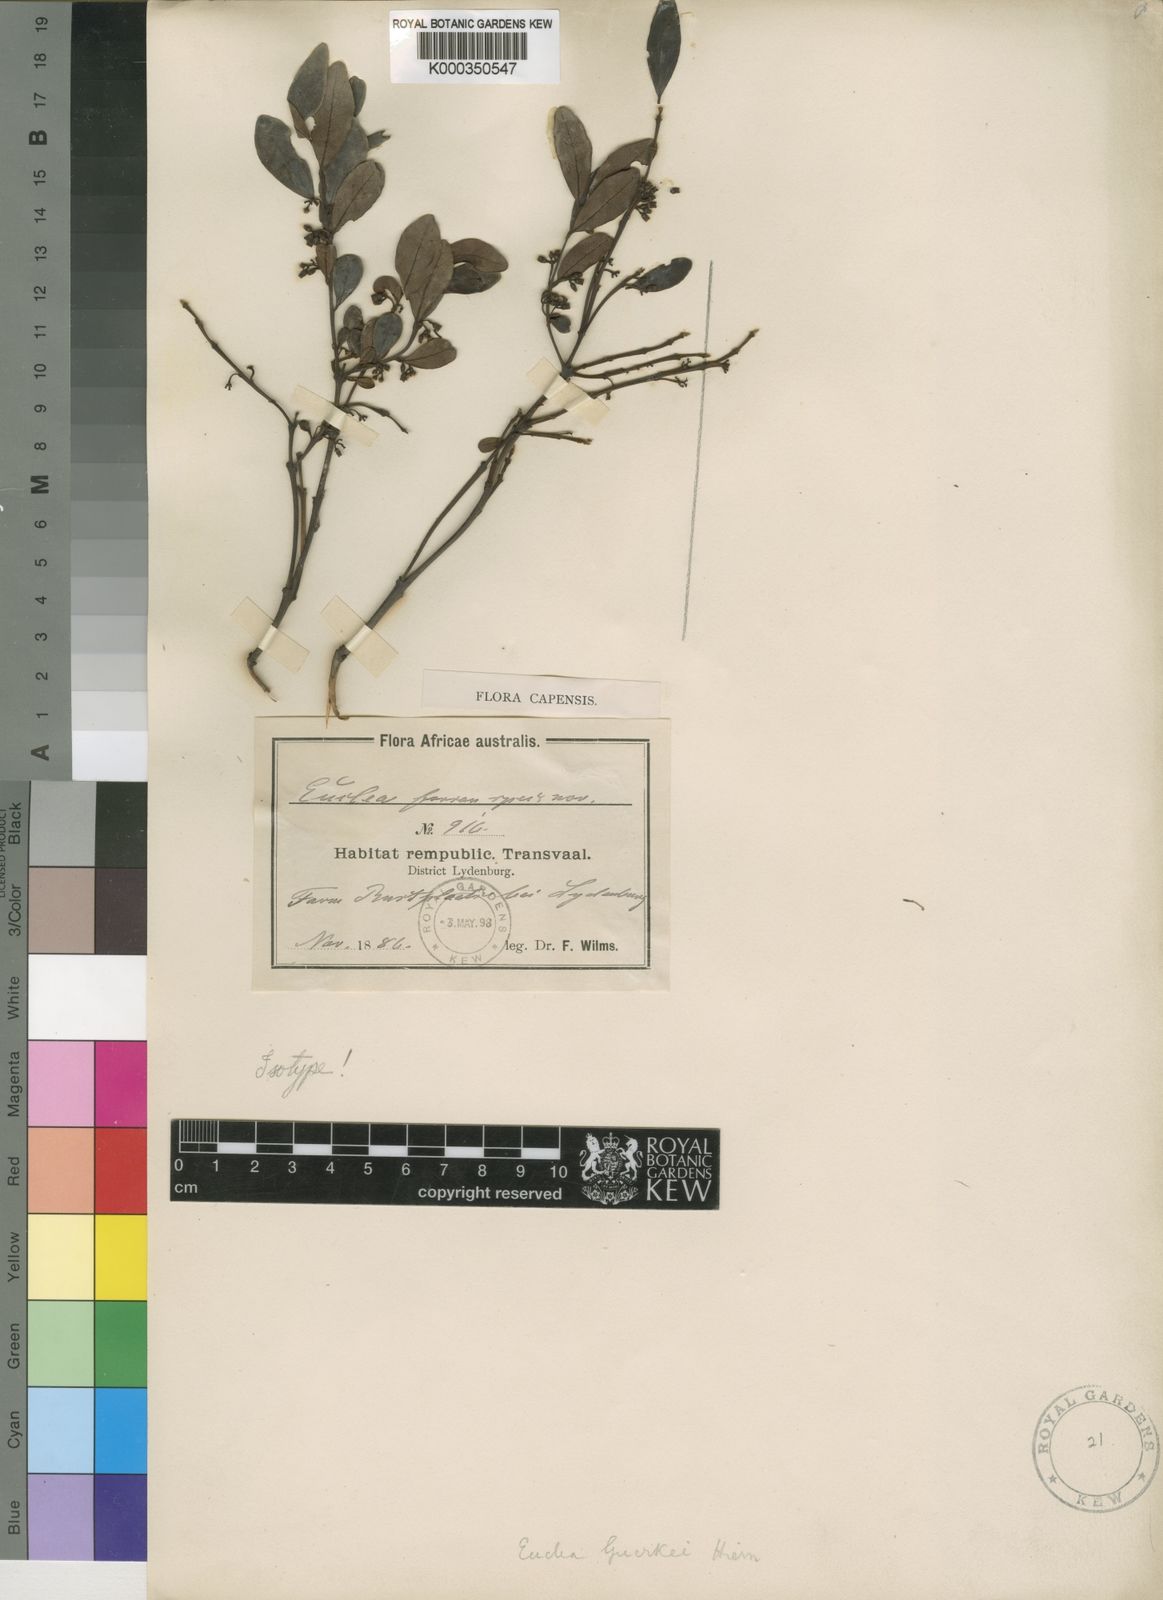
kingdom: Plantae
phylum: Tracheophyta
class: Magnoliopsida
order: Ericales
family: Ebenaceae
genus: Euclea
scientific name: Euclea
